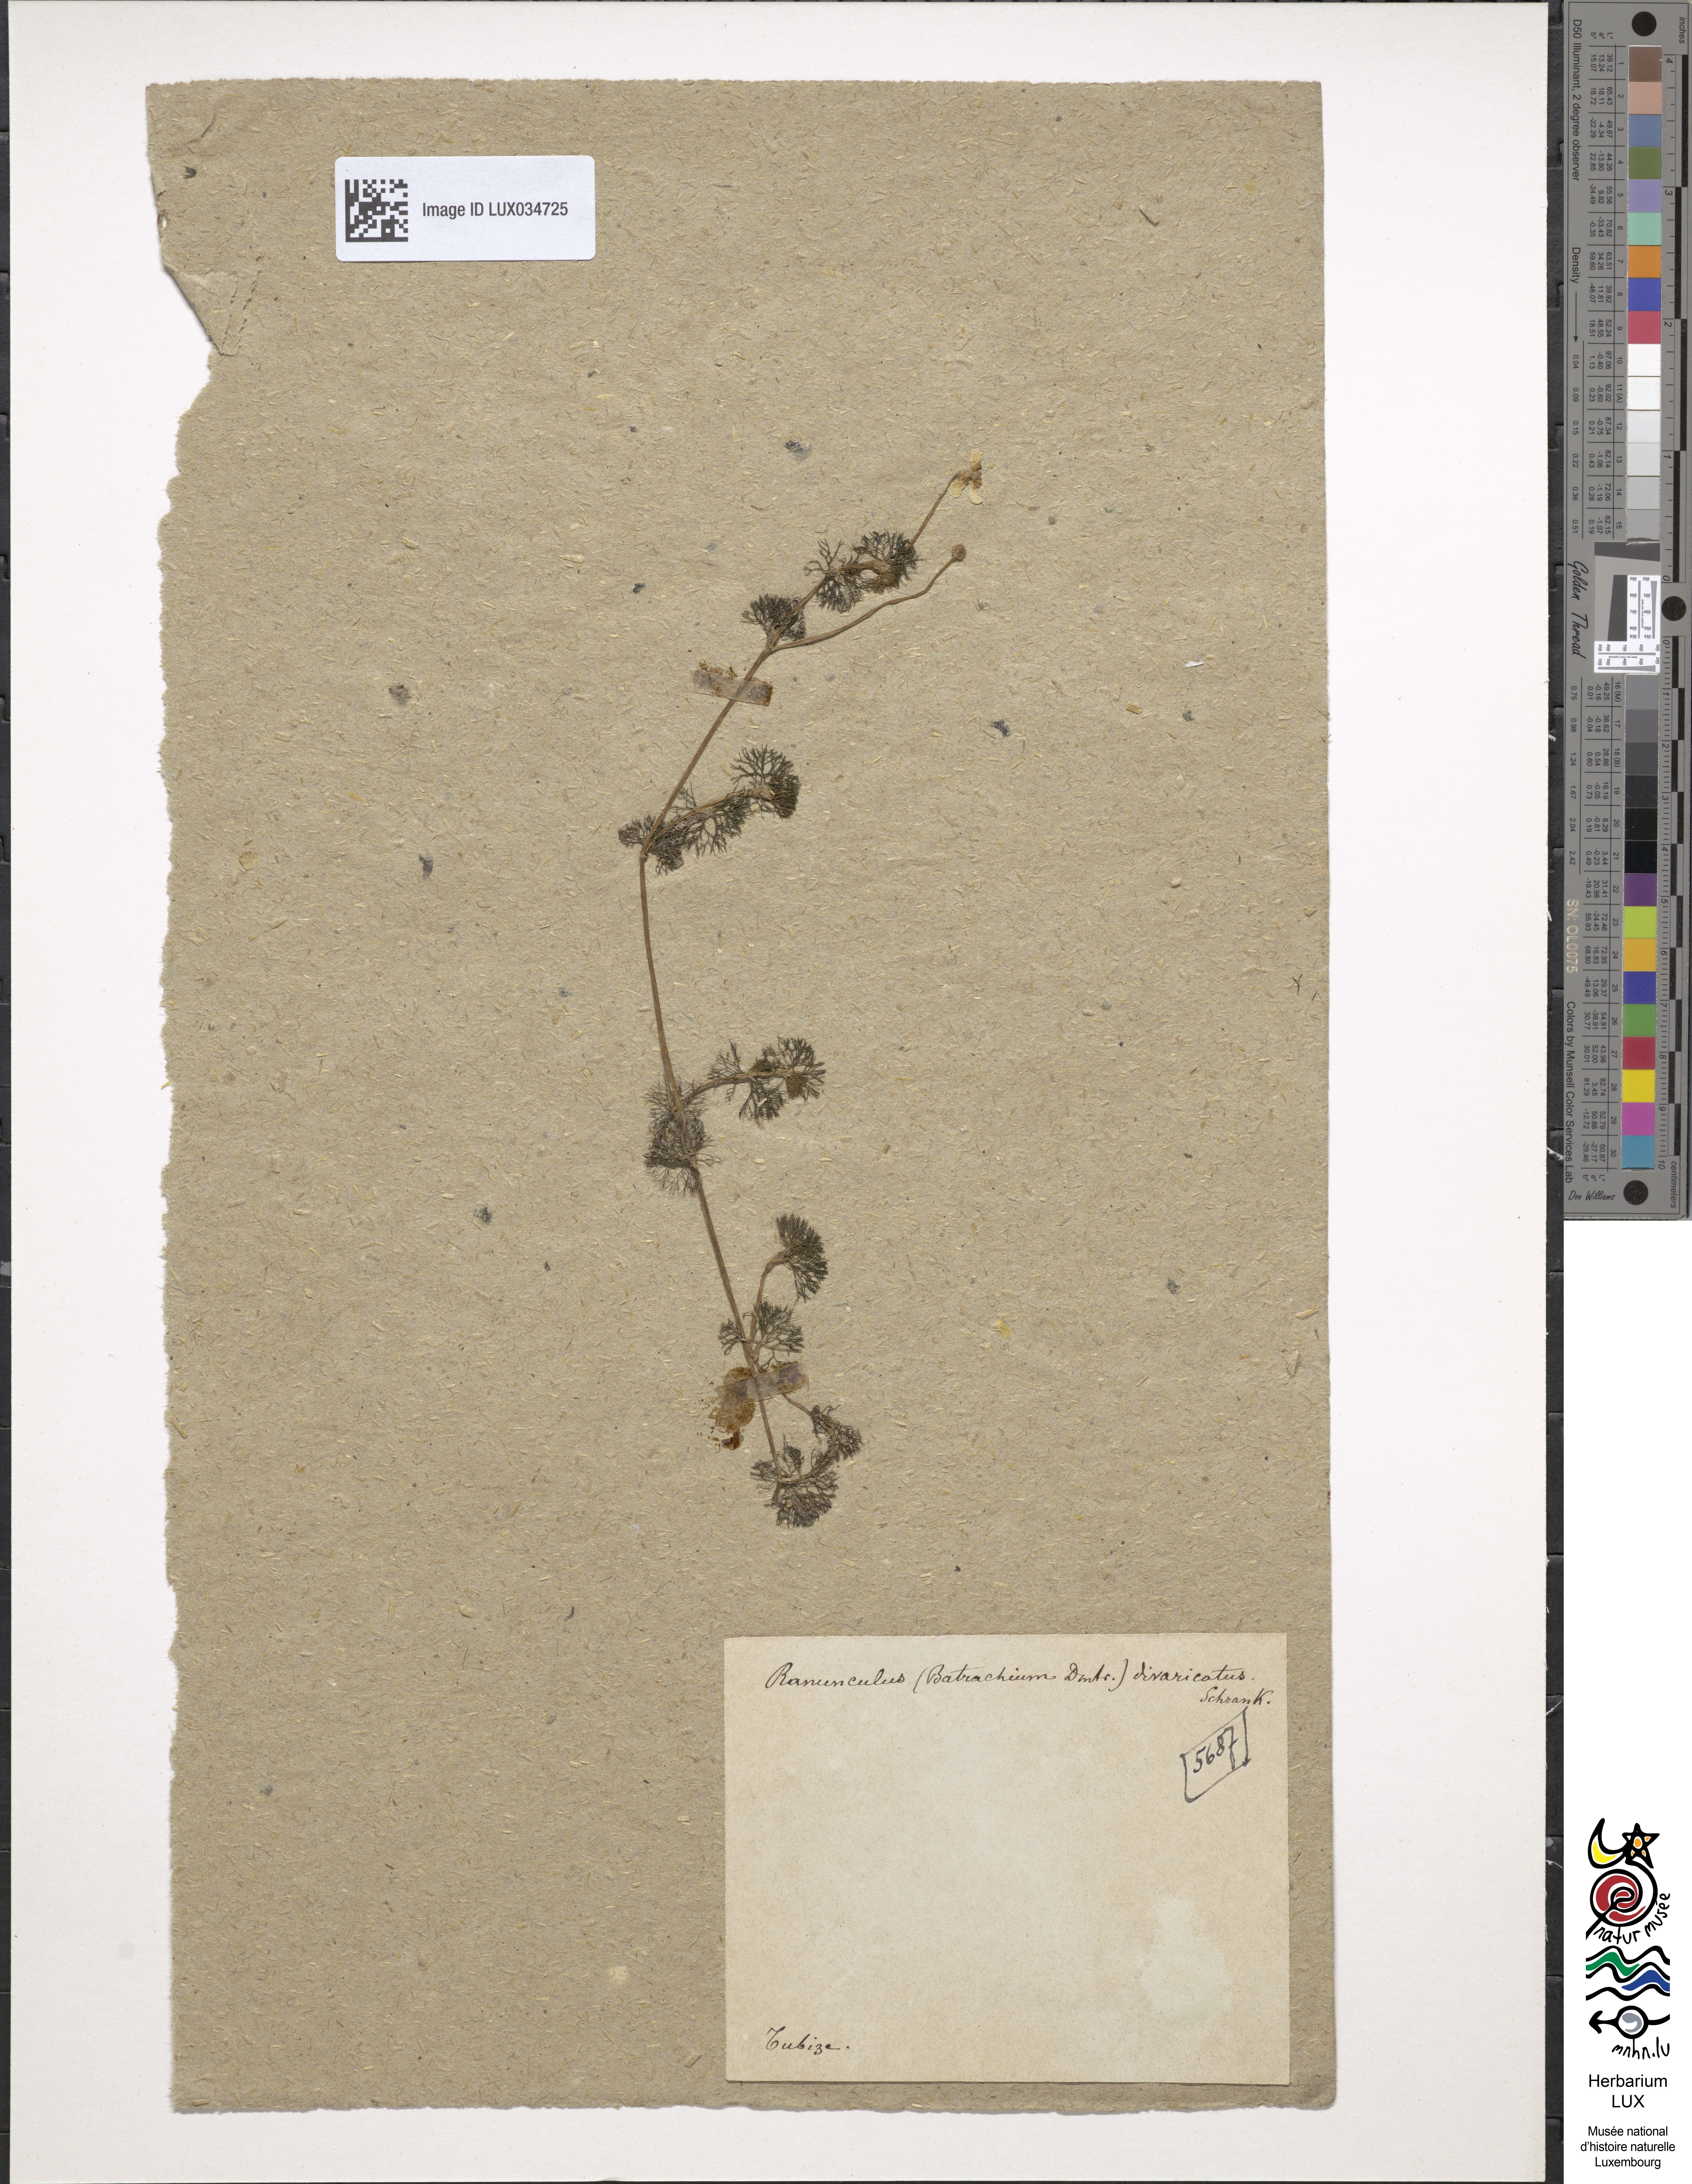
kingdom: Plantae
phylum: Tracheophyta
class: Magnoliopsida
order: Ranunculales
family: Ranunculaceae
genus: Ranunculus
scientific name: Ranunculus trichophyllus
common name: Thread-leaved water-crowfoot
